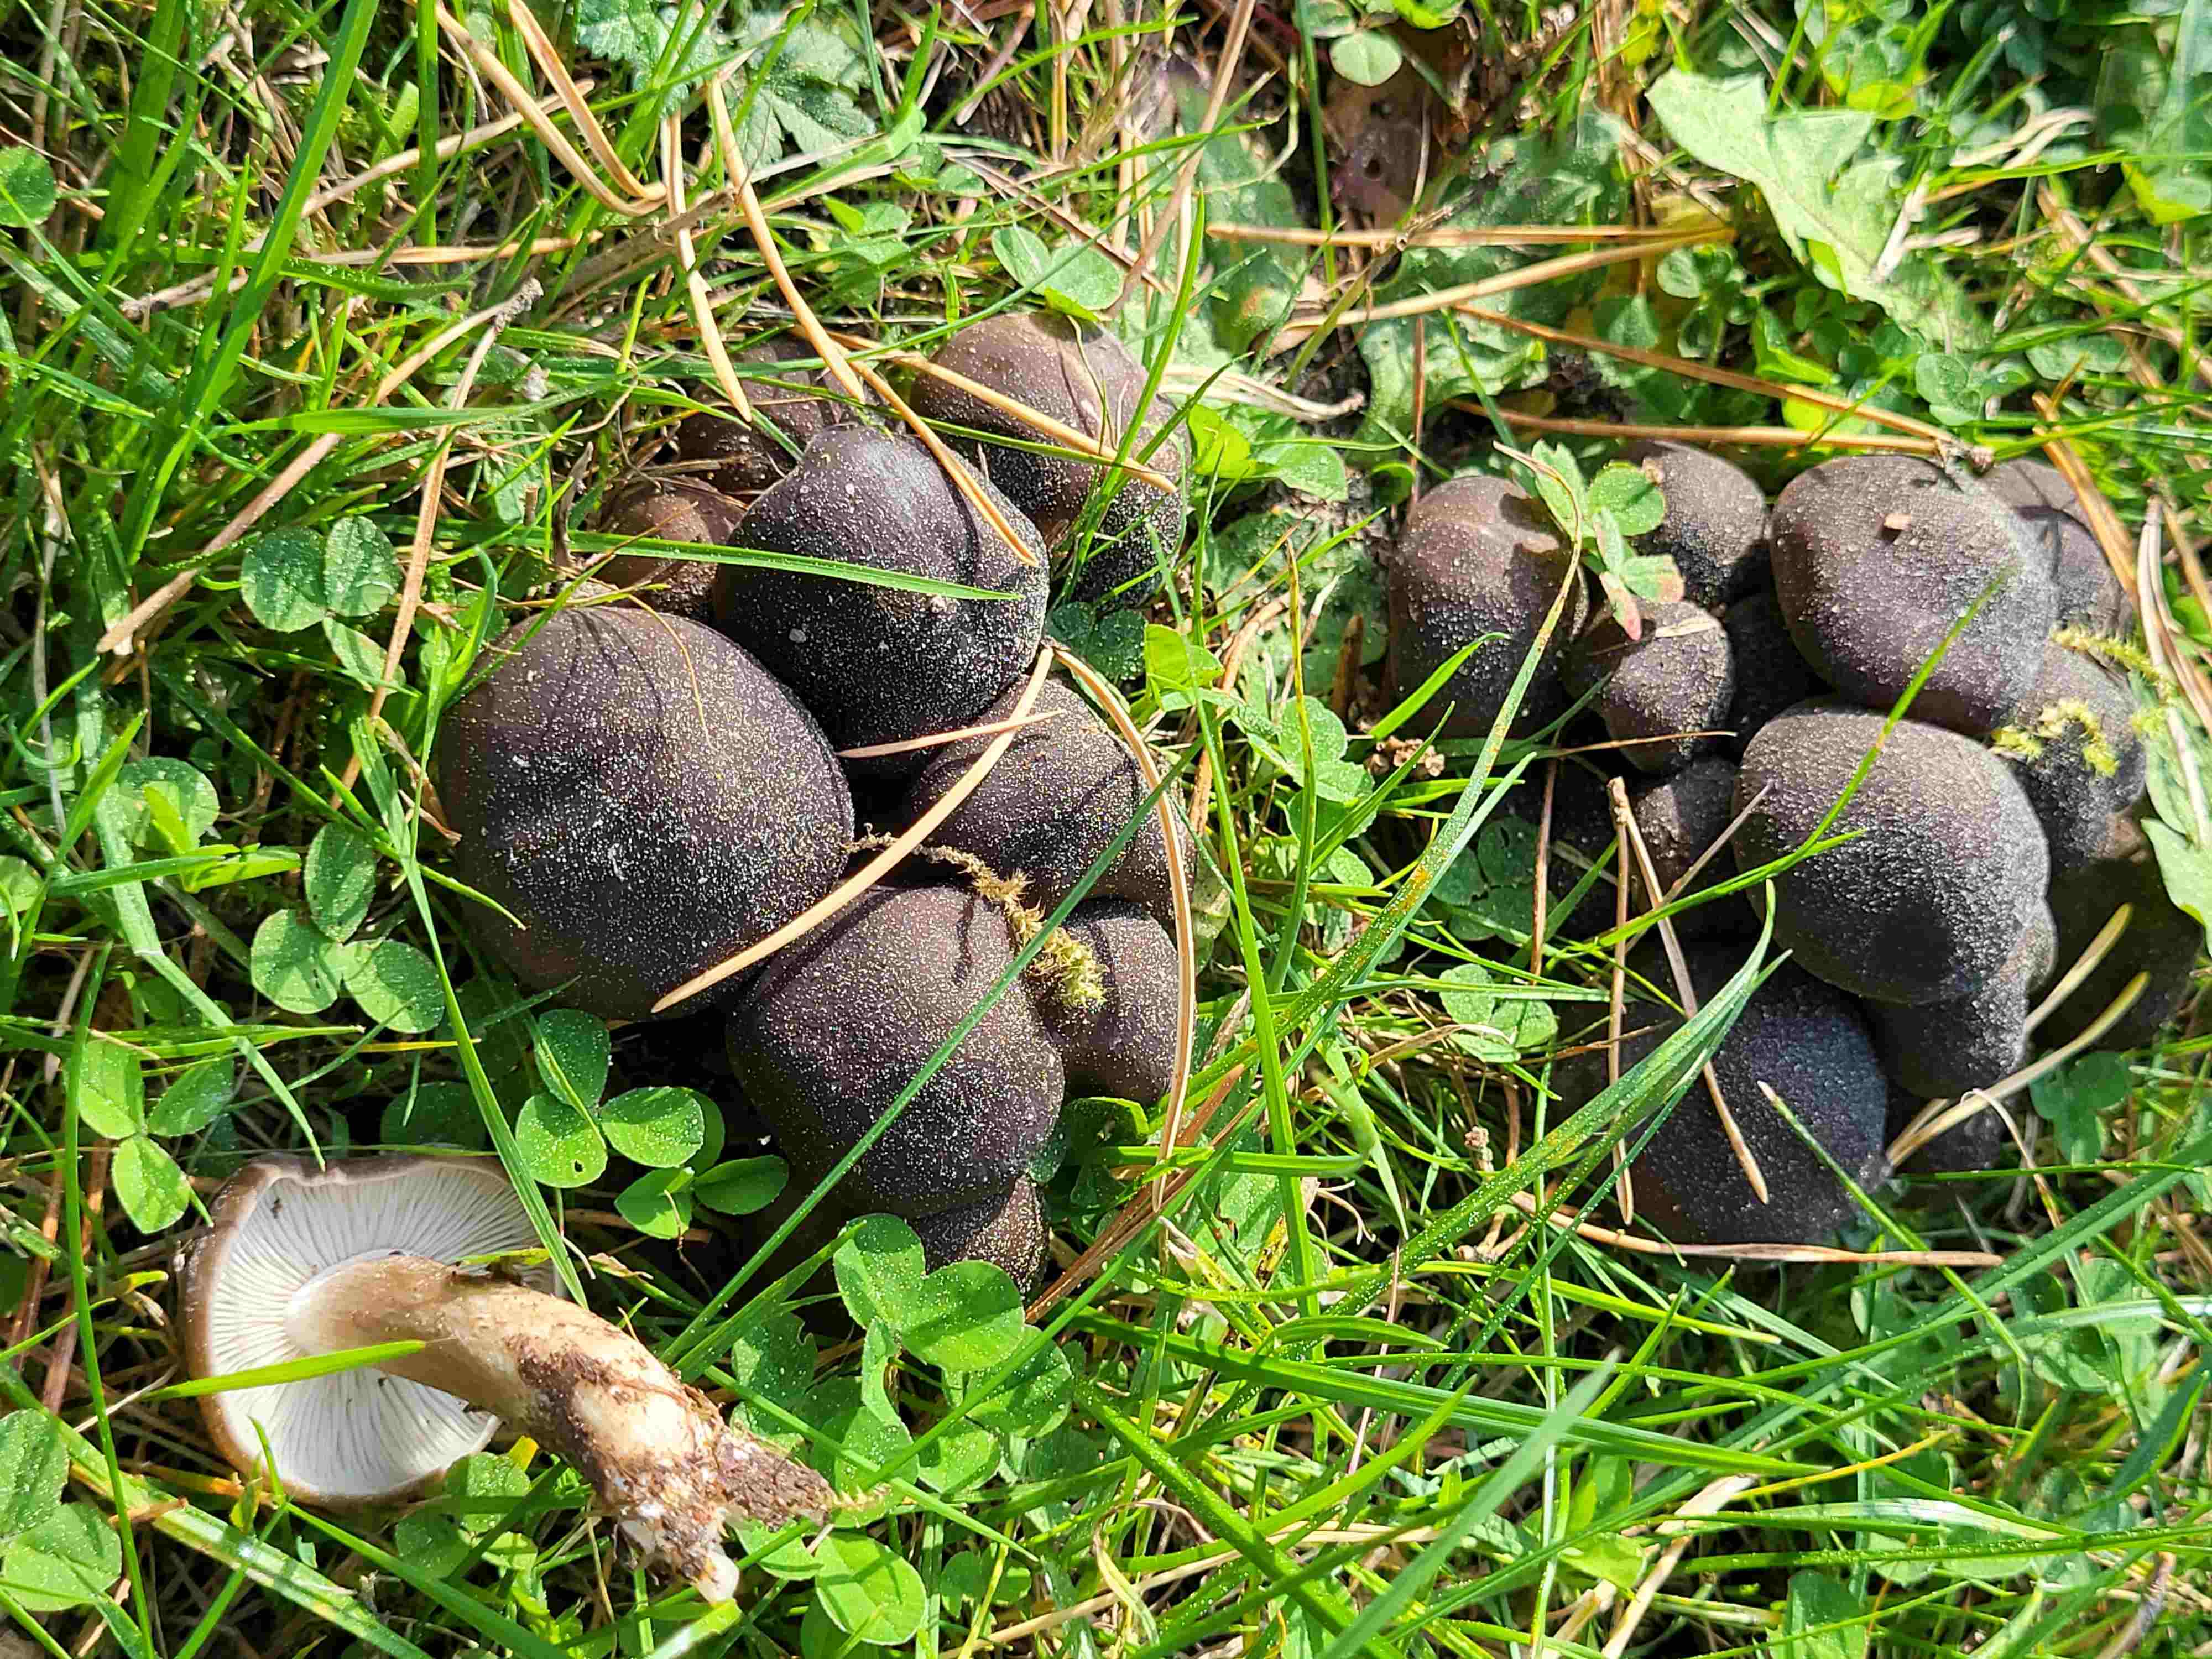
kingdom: Fungi
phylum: Basidiomycota
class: Agaricomycetes
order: Agaricales
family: Lyophyllaceae
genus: Lyophyllum
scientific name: Lyophyllum
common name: gråblad
